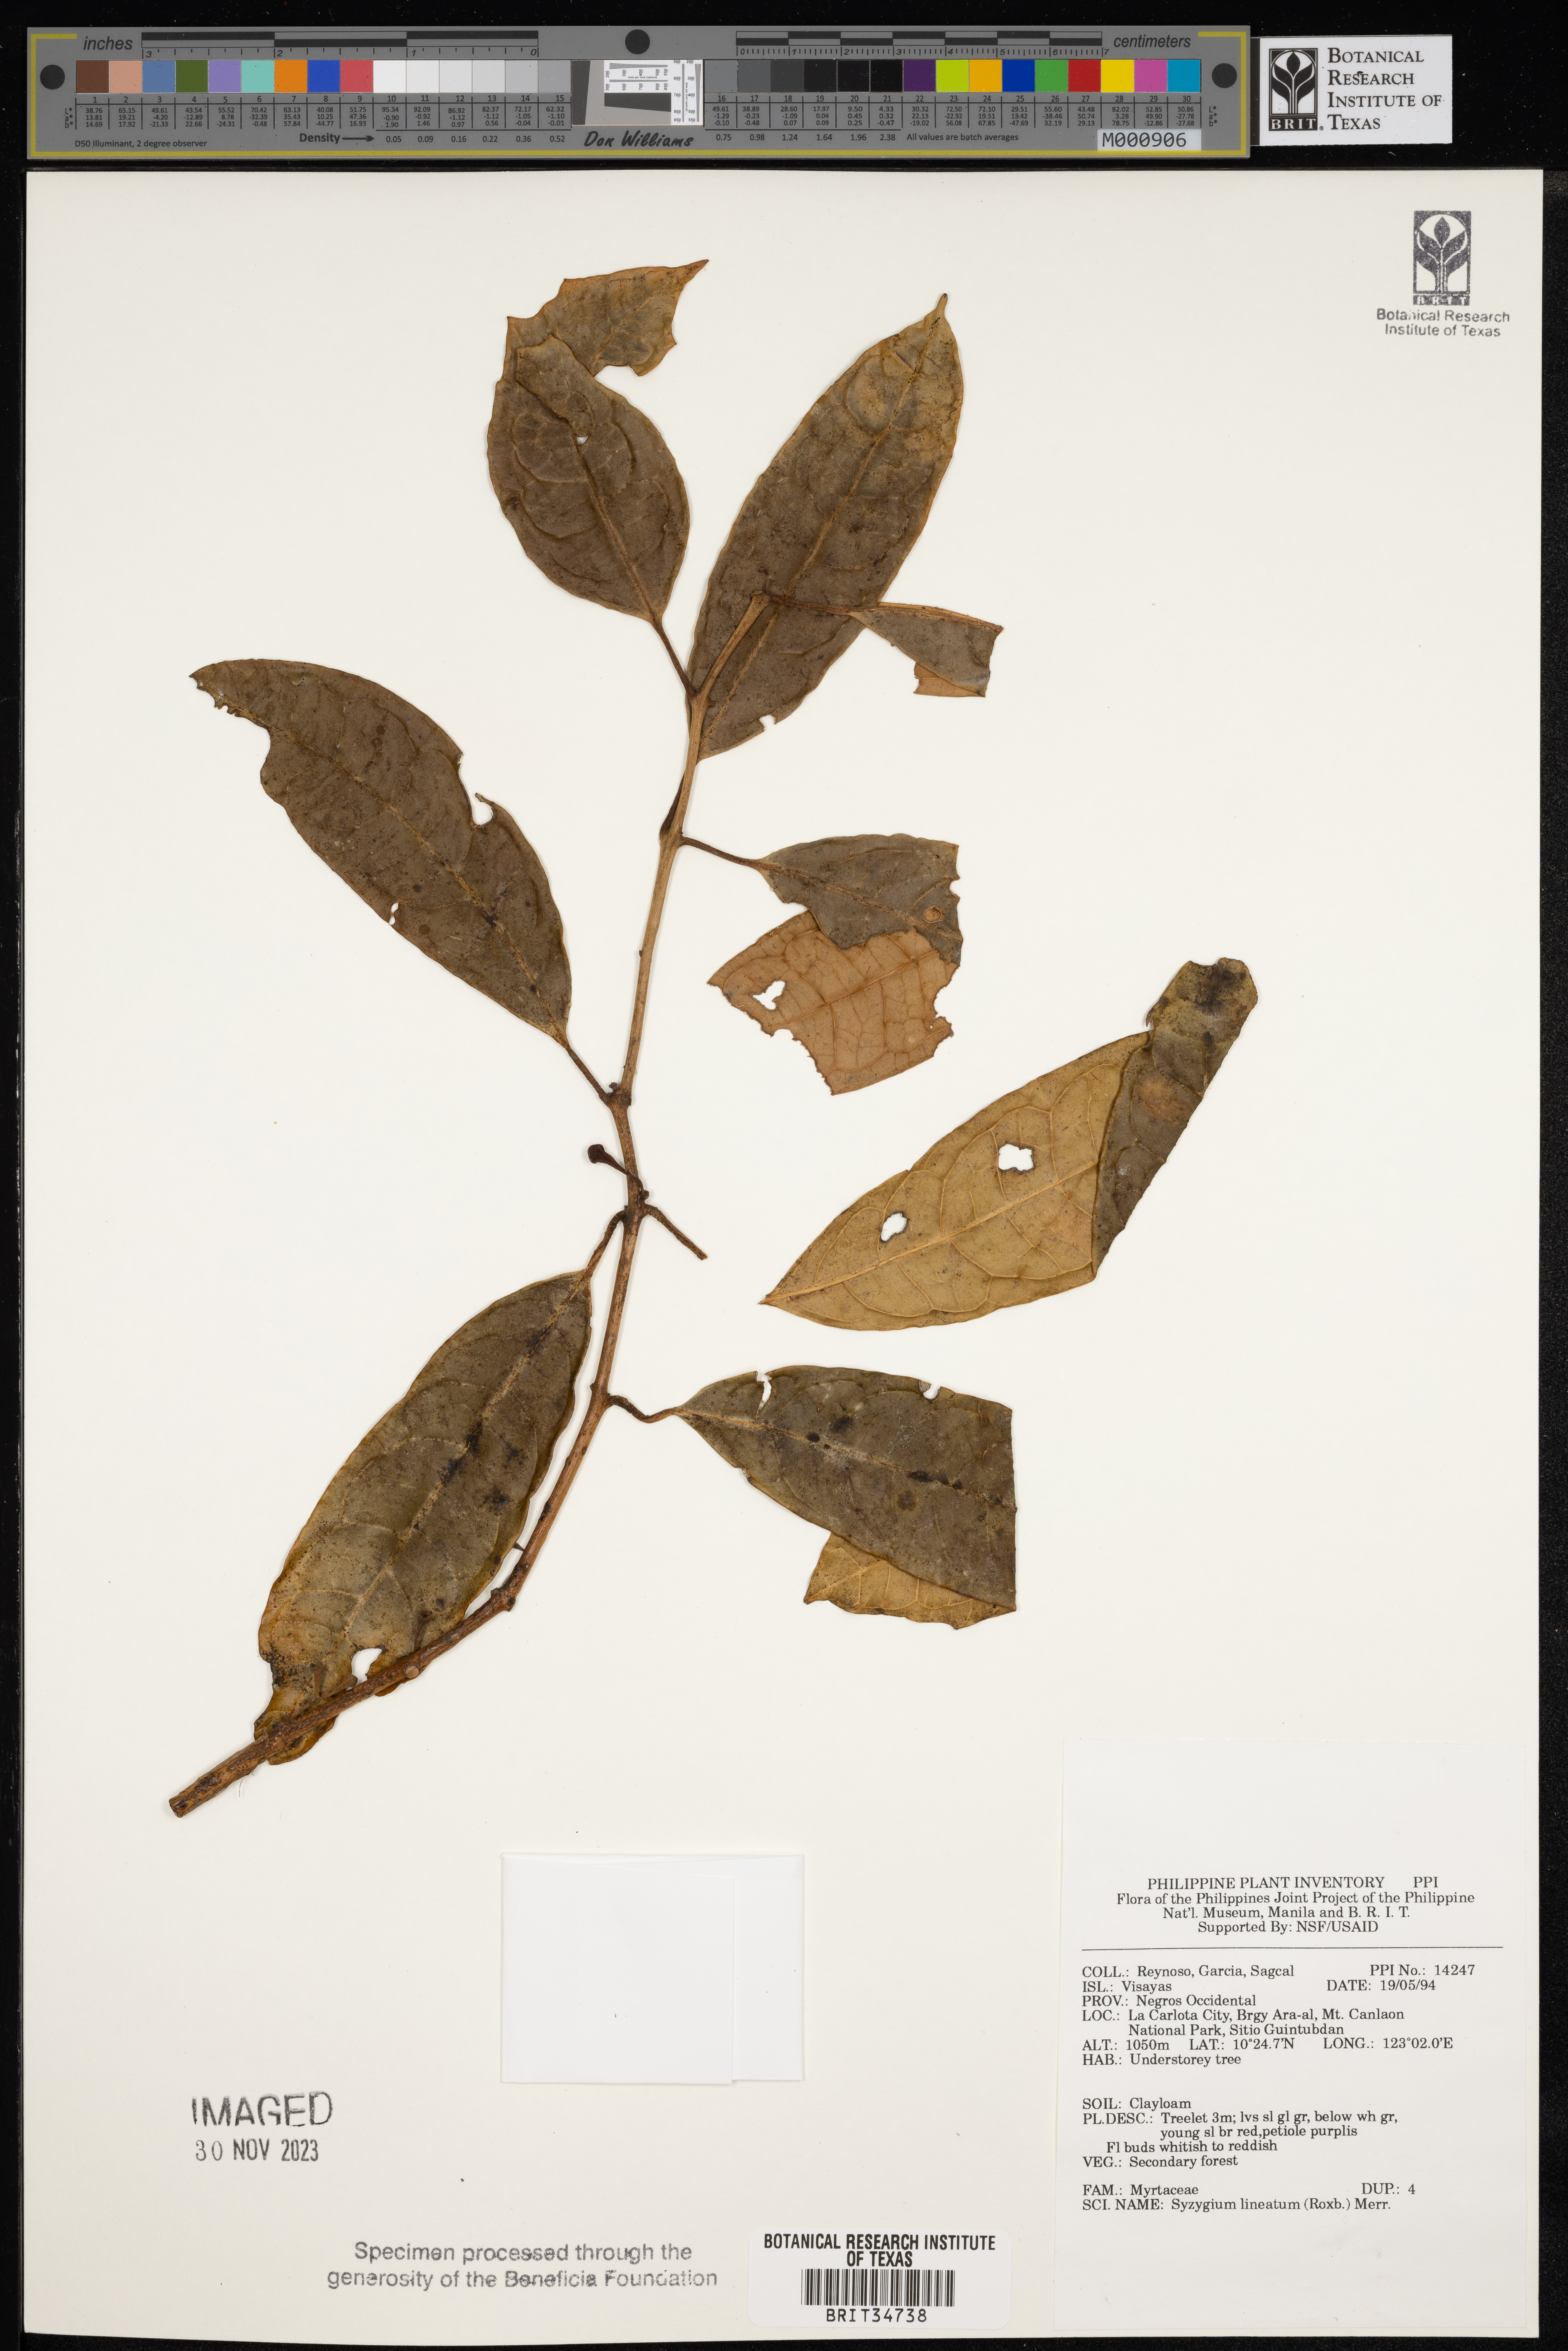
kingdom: Plantae
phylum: Tracheophyta
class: Magnoliopsida
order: Myrtales
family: Myrtaceae
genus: Syzygium
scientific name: Syzygium lineatum
